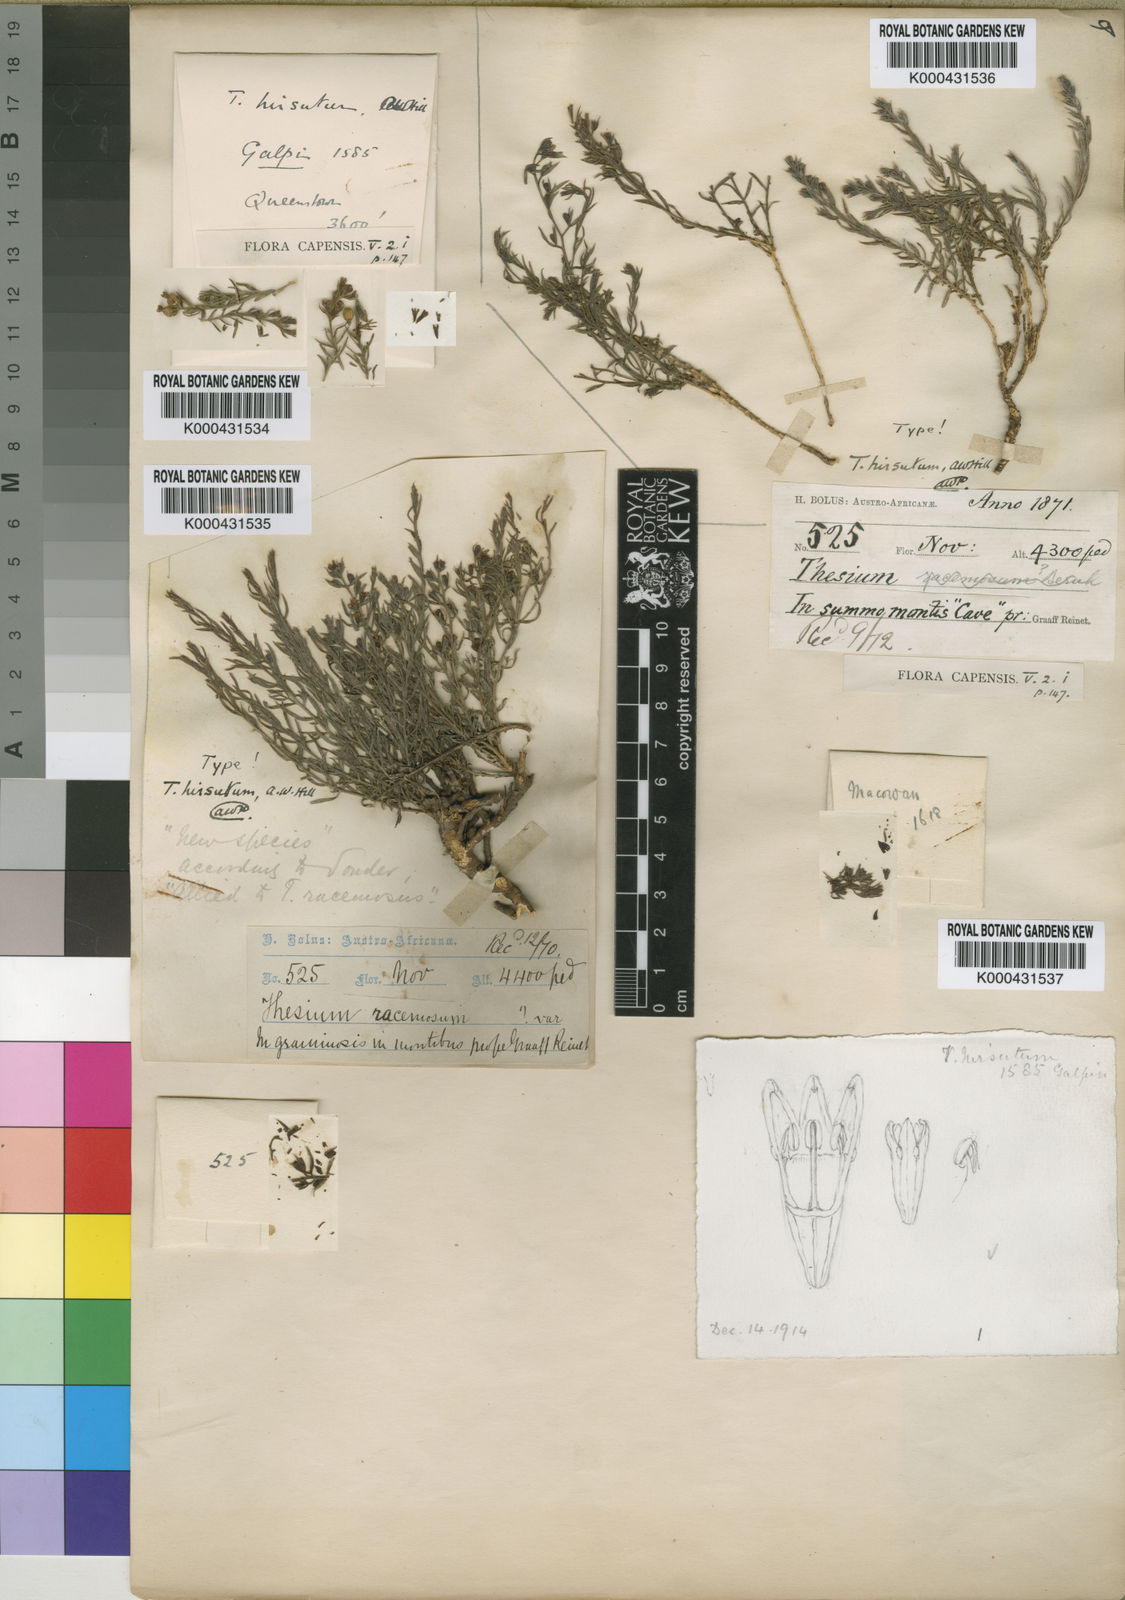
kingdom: Plantae
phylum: Tracheophyta
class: Magnoliopsida
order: Santalales
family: Thesiaceae
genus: Thesium
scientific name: Thesium hirsutum
